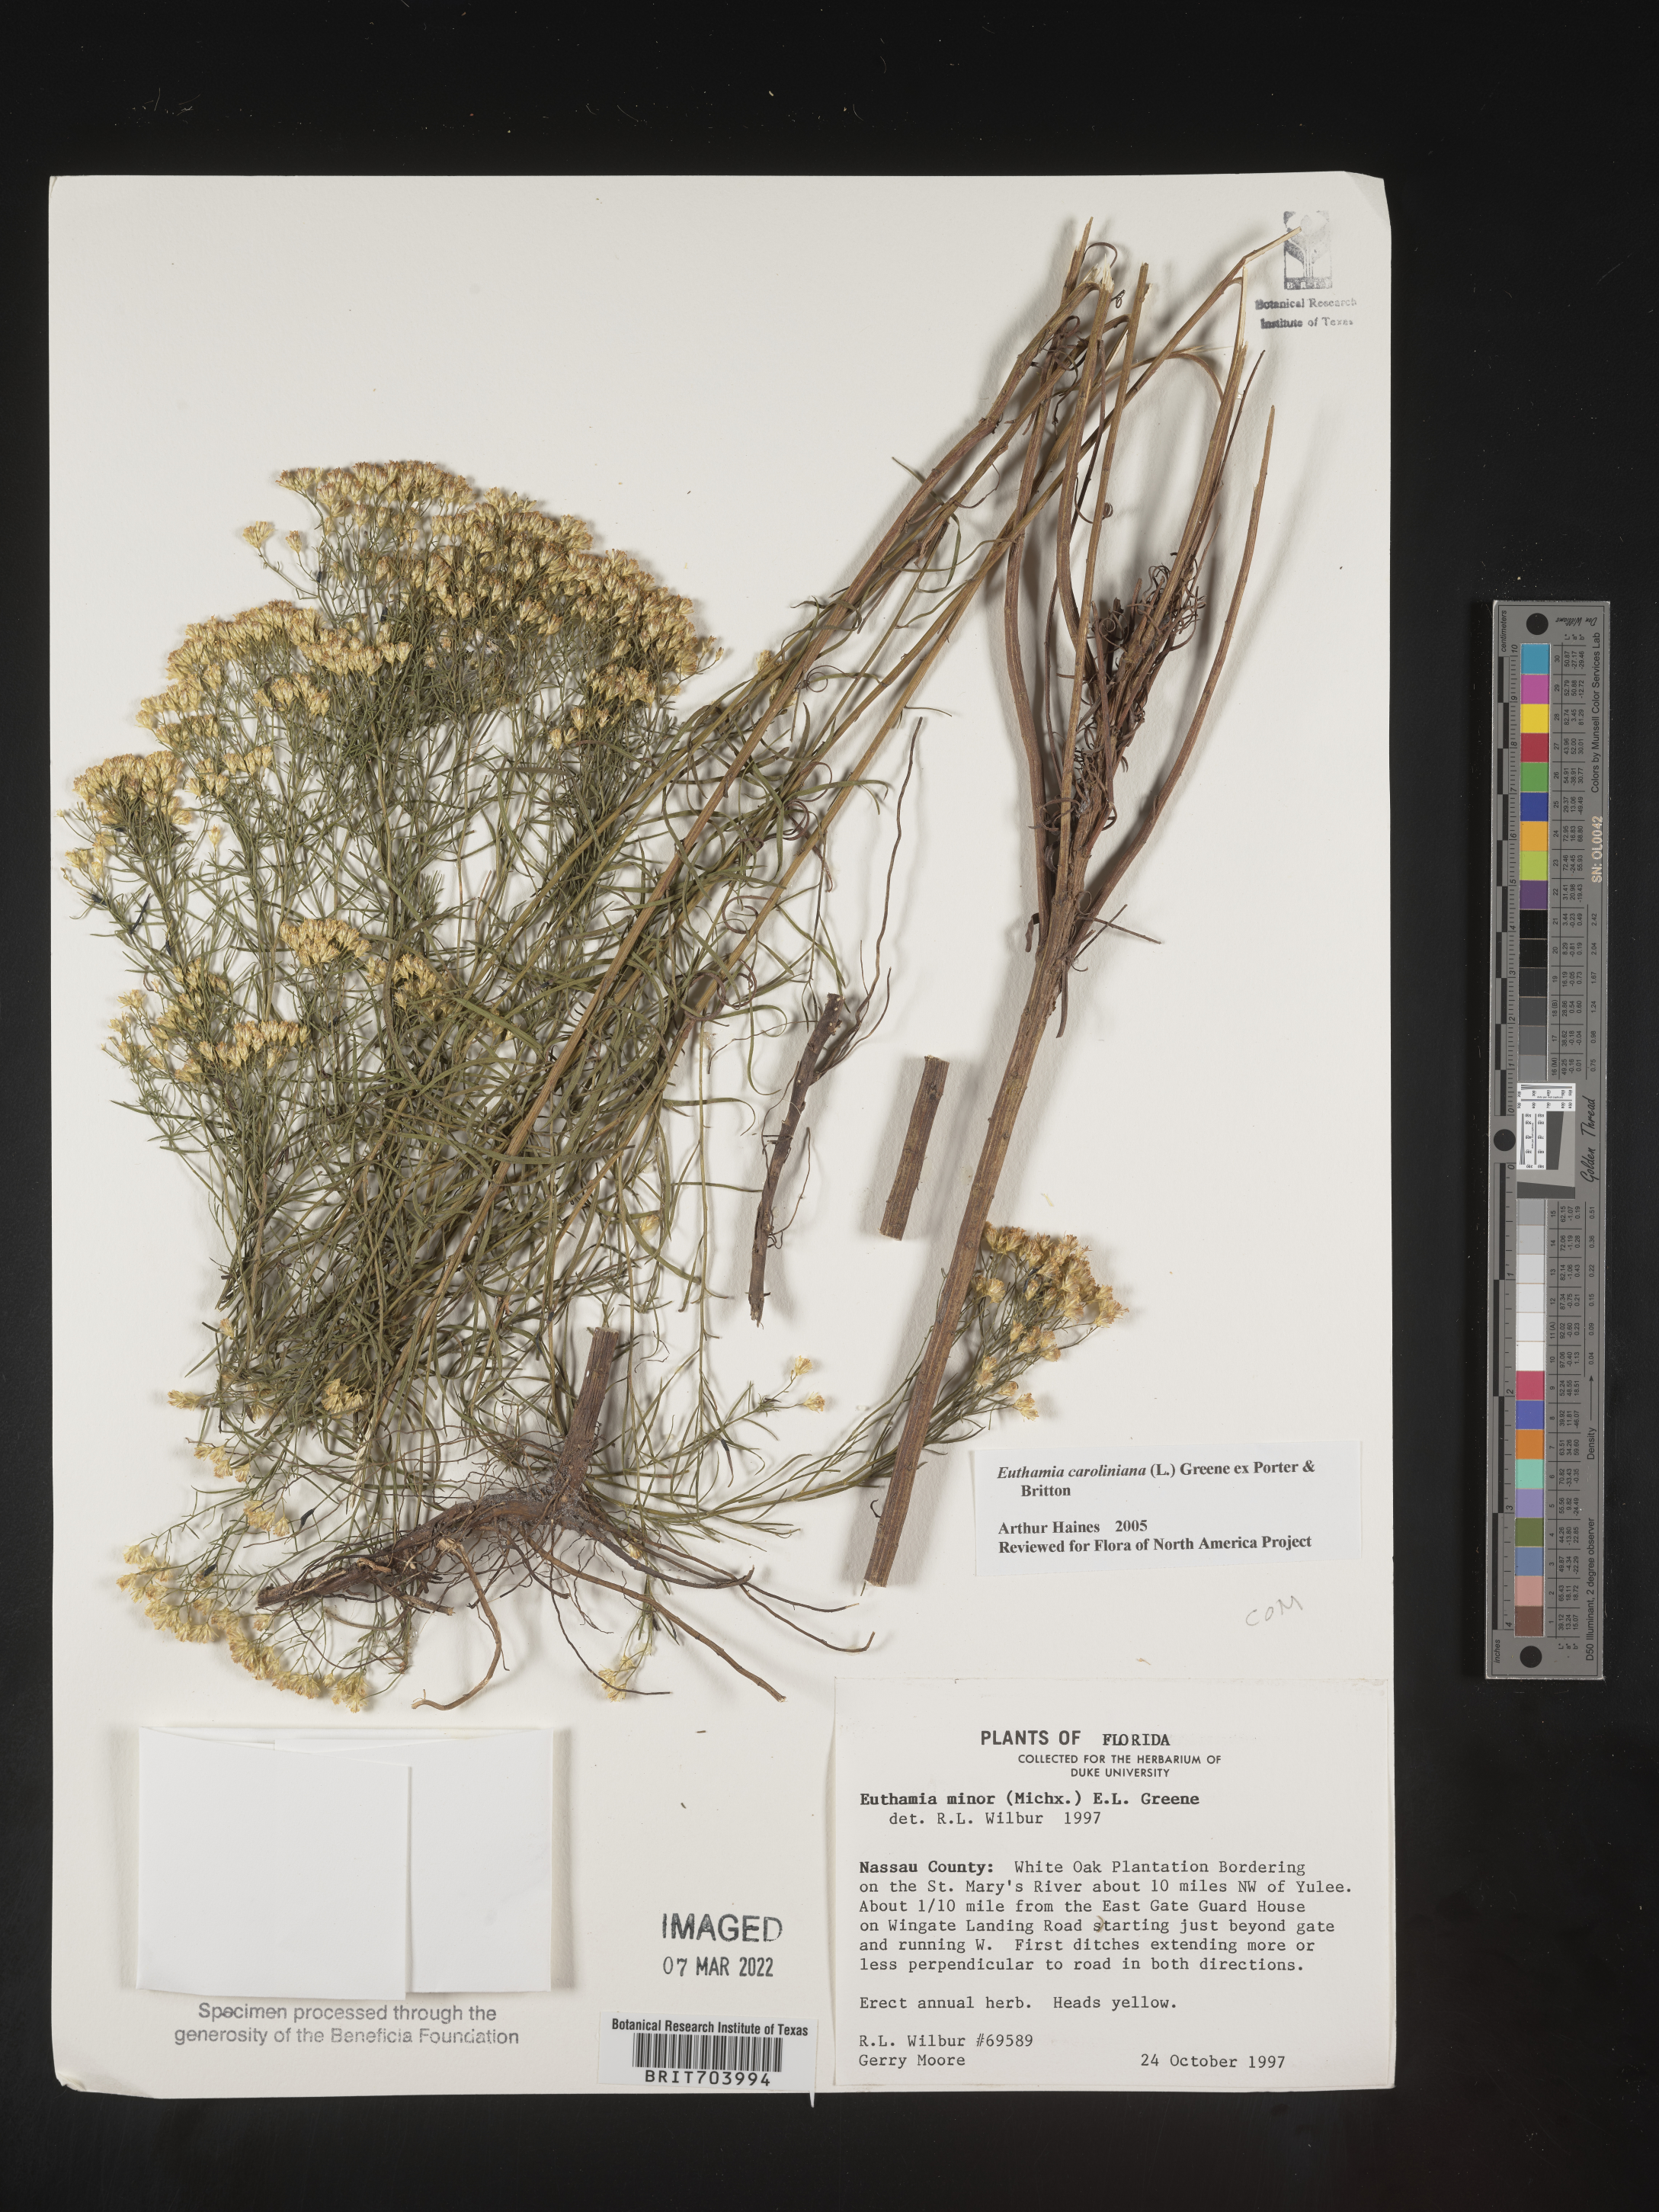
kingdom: Plantae
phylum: Tracheophyta
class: Magnoliopsida
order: Asterales
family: Asteraceae
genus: Euthamia
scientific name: Euthamia caroliniana
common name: Coastal plain goldentop
